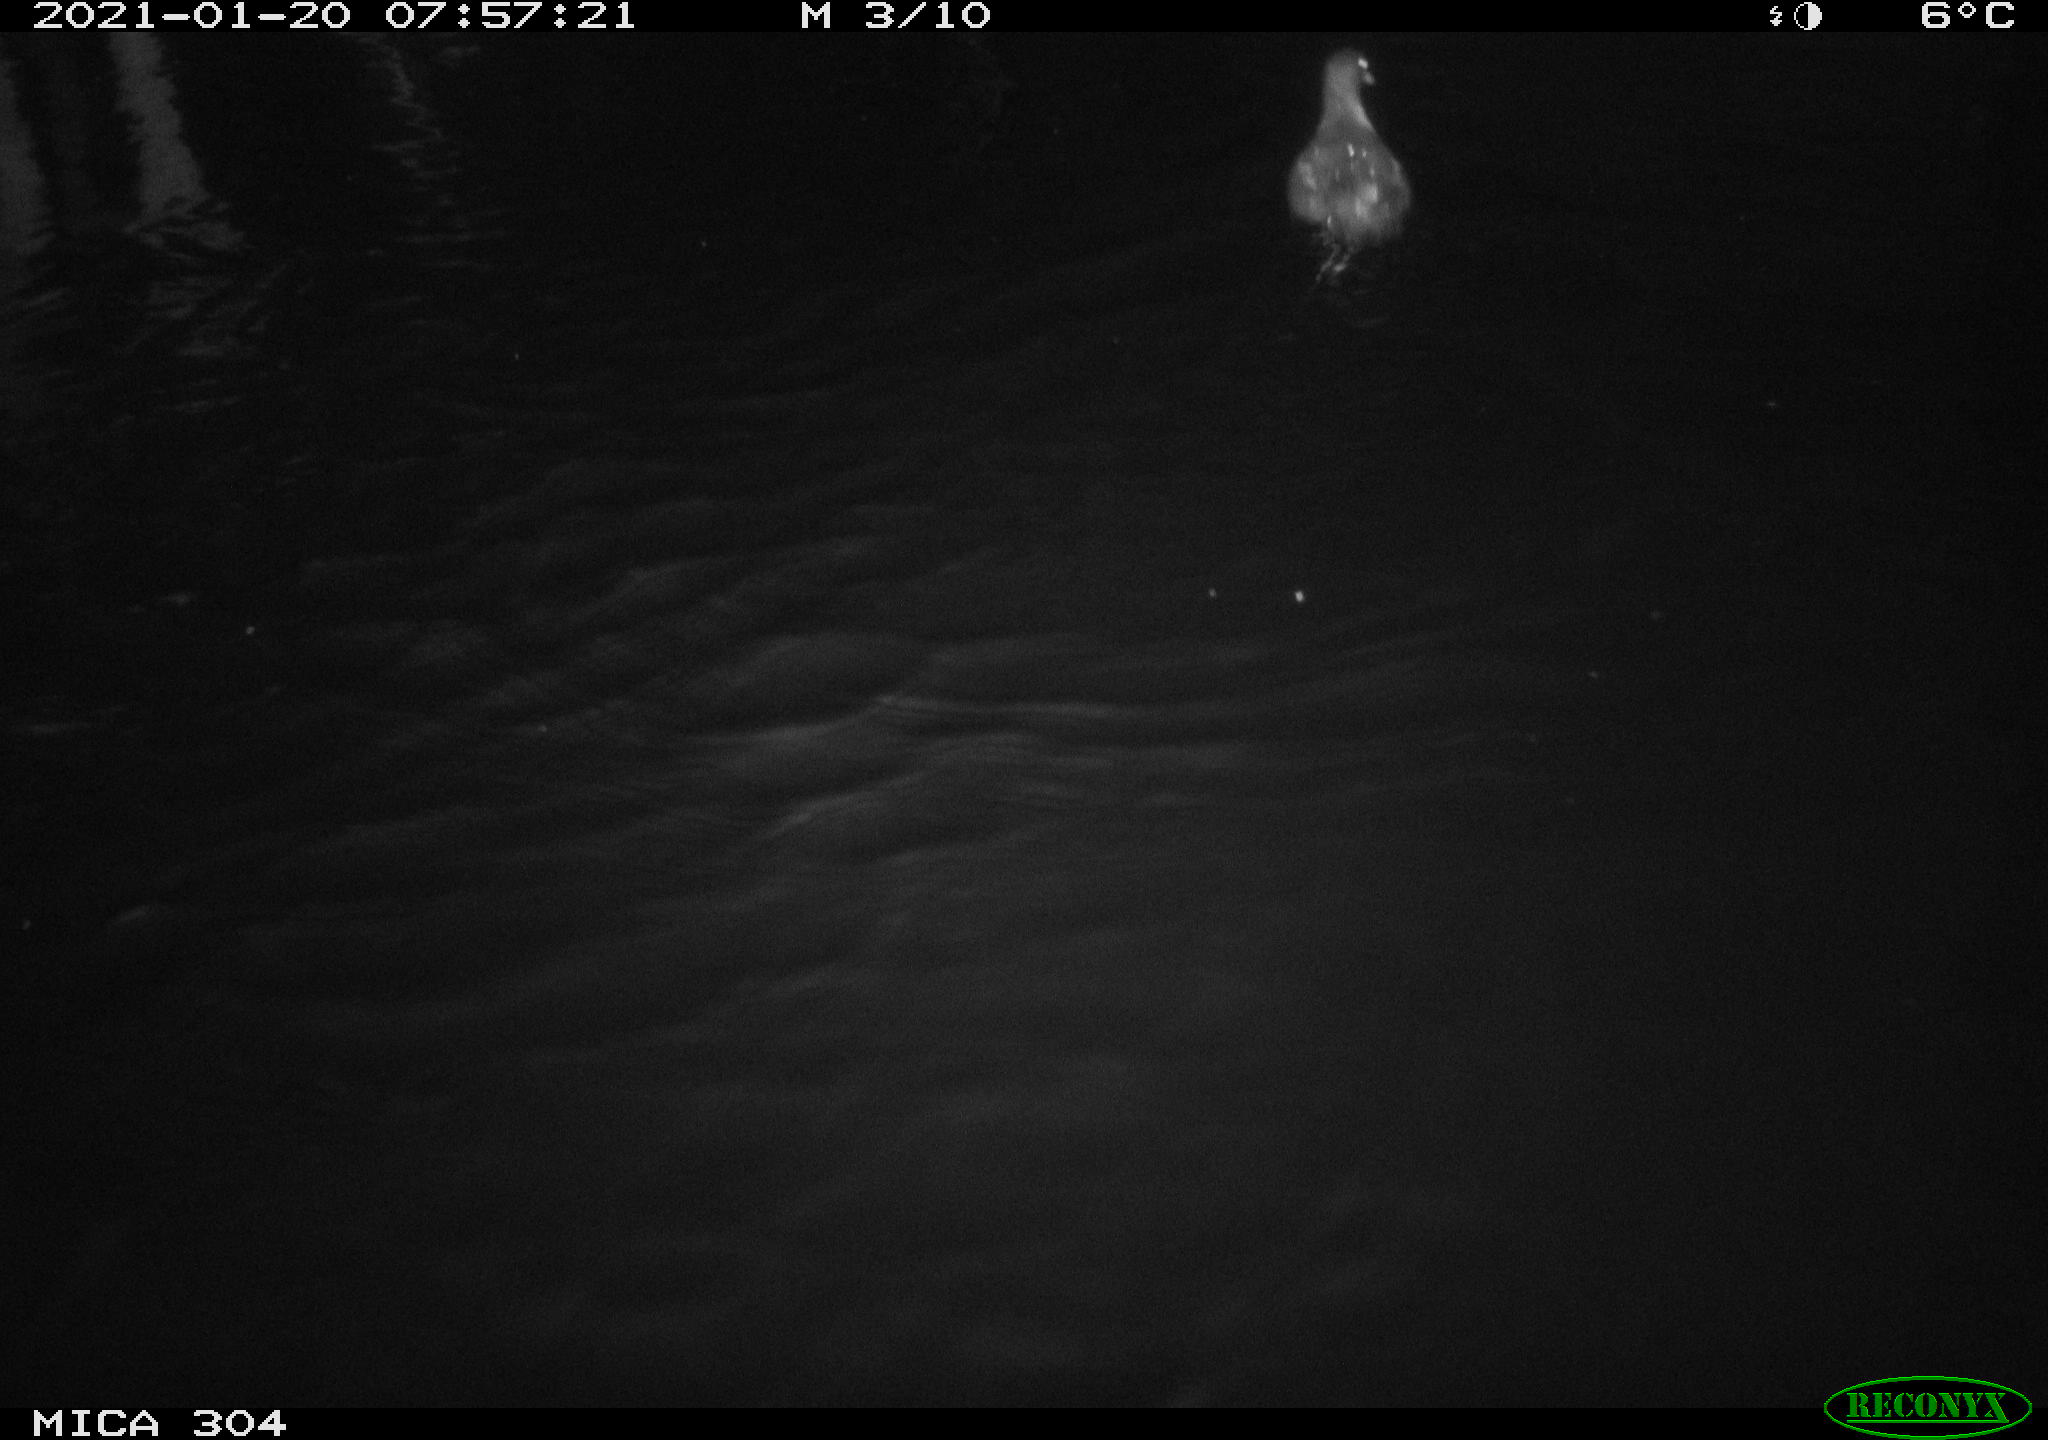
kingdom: Animalia
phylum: Chordata
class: Aves
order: Gruiformes
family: Rallidae
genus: Gallinula
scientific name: Gallinula chloropus
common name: Common moorhen
